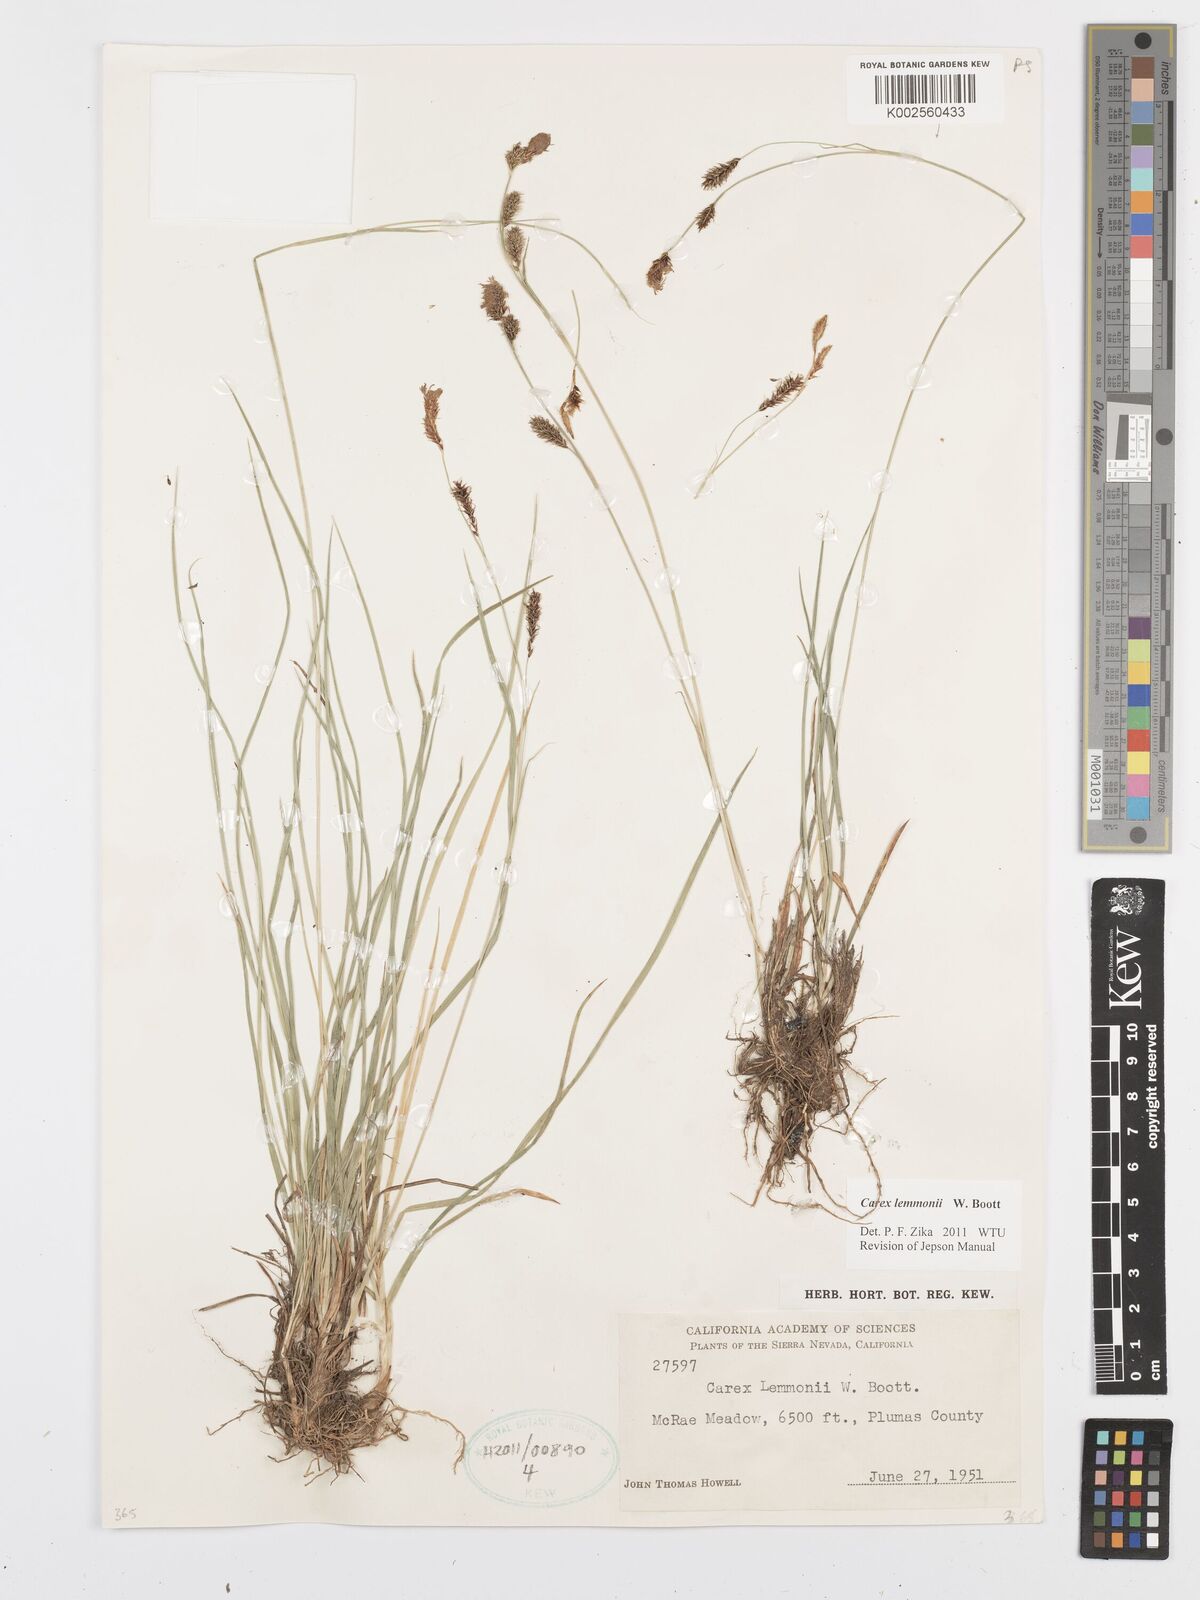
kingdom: Plantae
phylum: Tracheophyta
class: Liliopsida
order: Poales
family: Cyperaceae
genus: Carex
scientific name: Carex lemmonii
